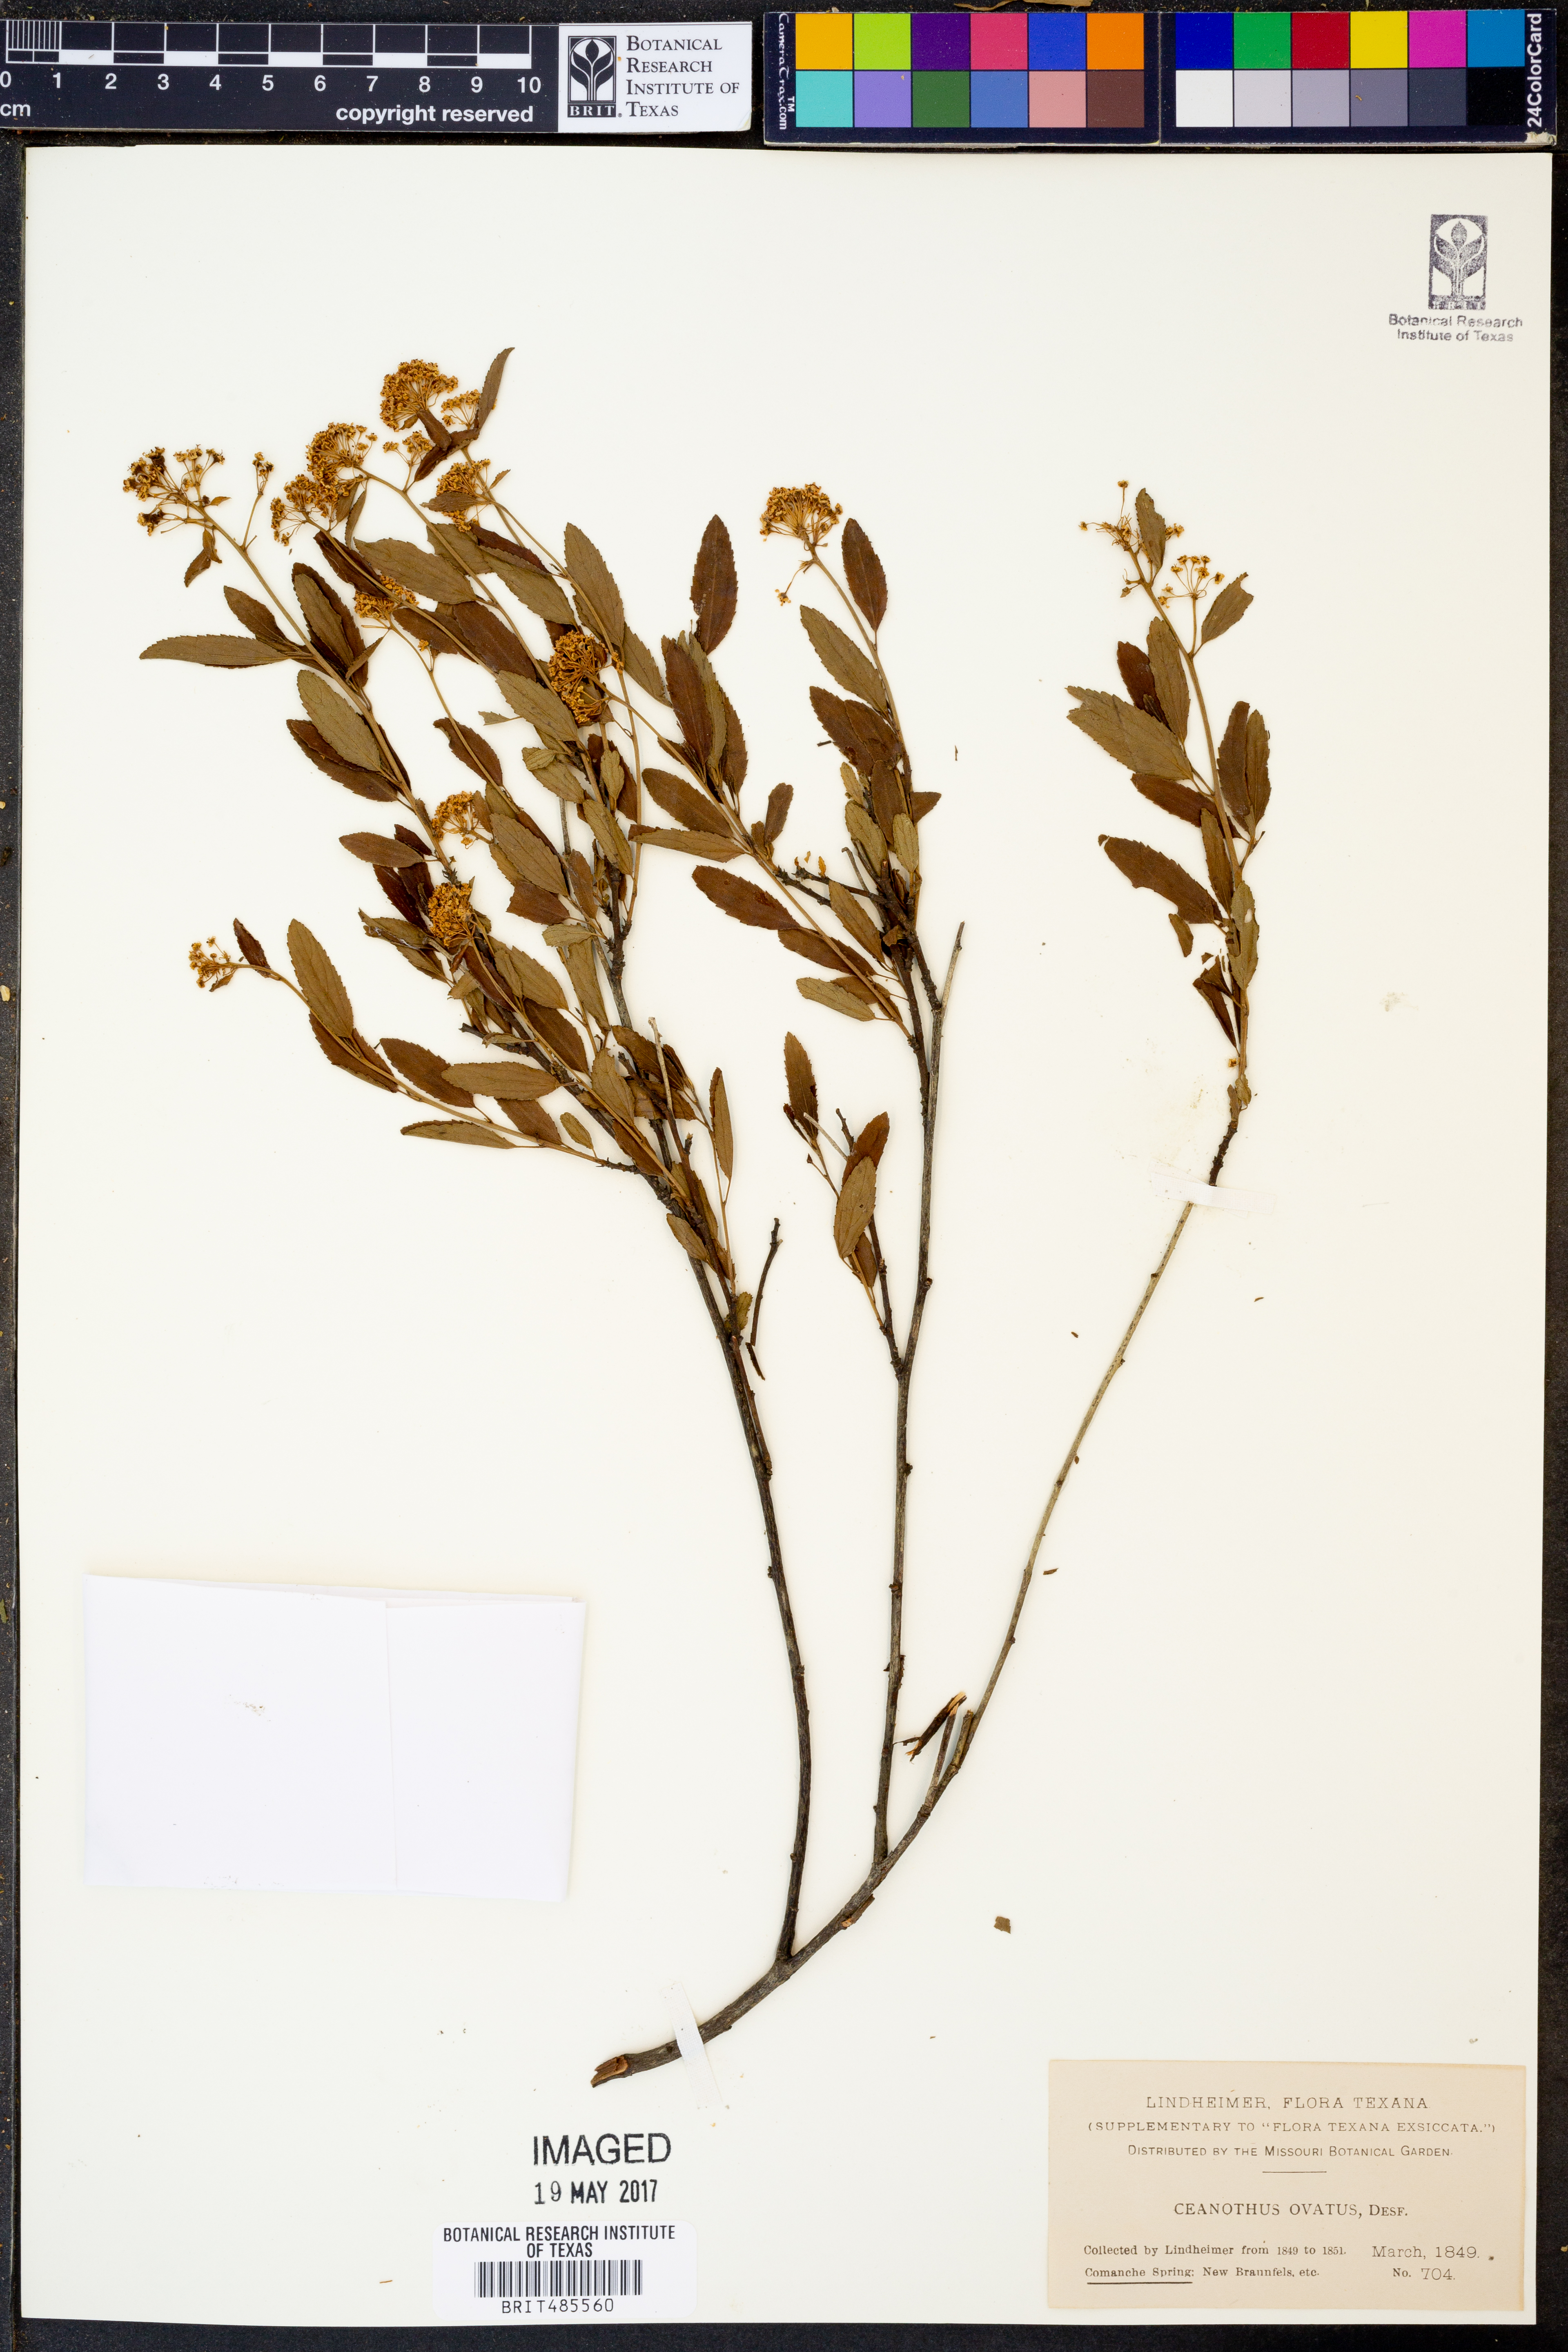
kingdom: Plantae
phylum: Tracheophyta
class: Magnoliopsida
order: Rosales
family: Rhamnaceae
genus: Ceanothus
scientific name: Ceanothus herbaceus
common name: Inland ceanothus
